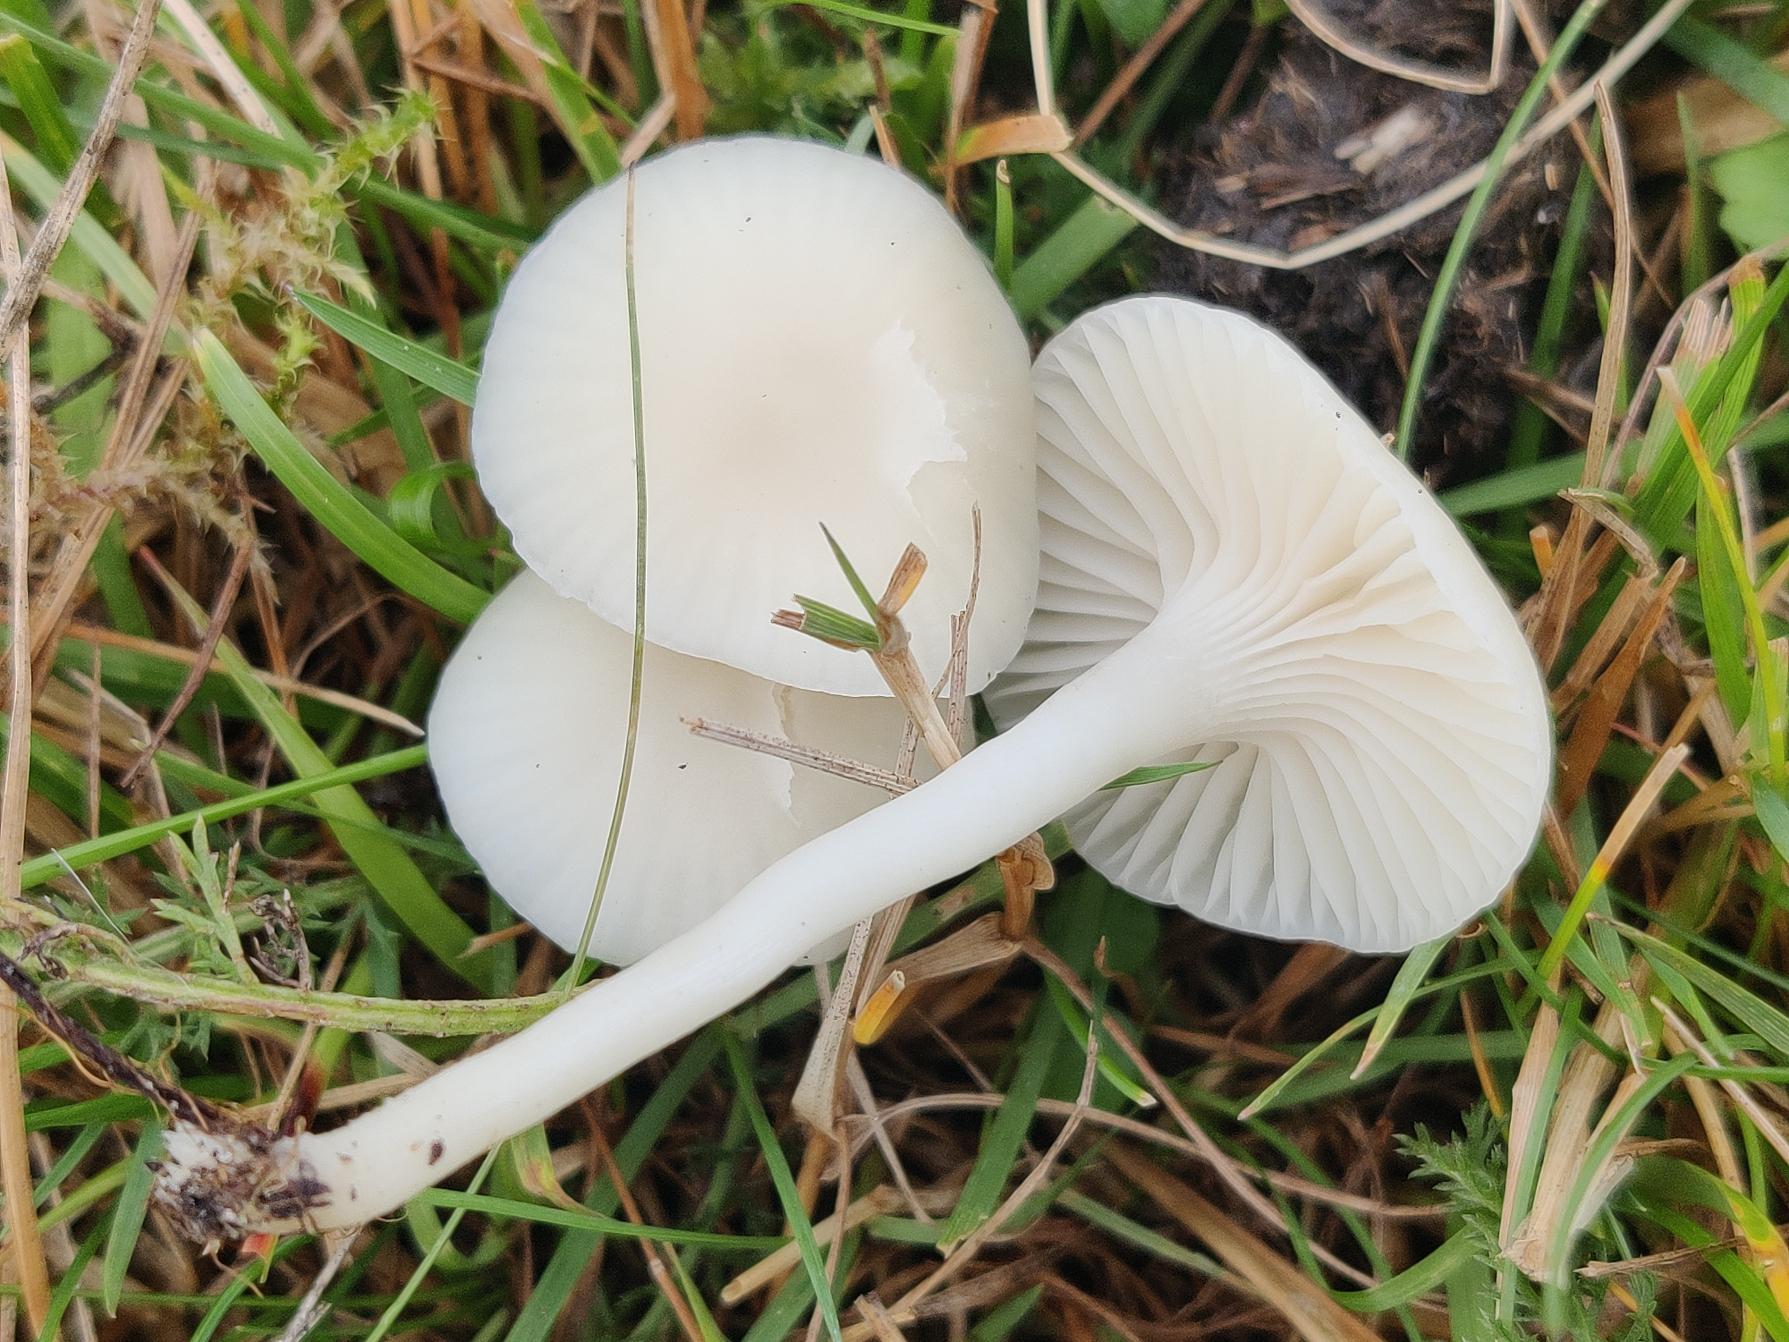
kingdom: Fungi
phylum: Basidiomycota
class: Agaricomycetes
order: Agaricales
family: Hygrophoraceae
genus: Cuphophyllus
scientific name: Cuphophyllus virgineus
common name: Snehvid vokshat
